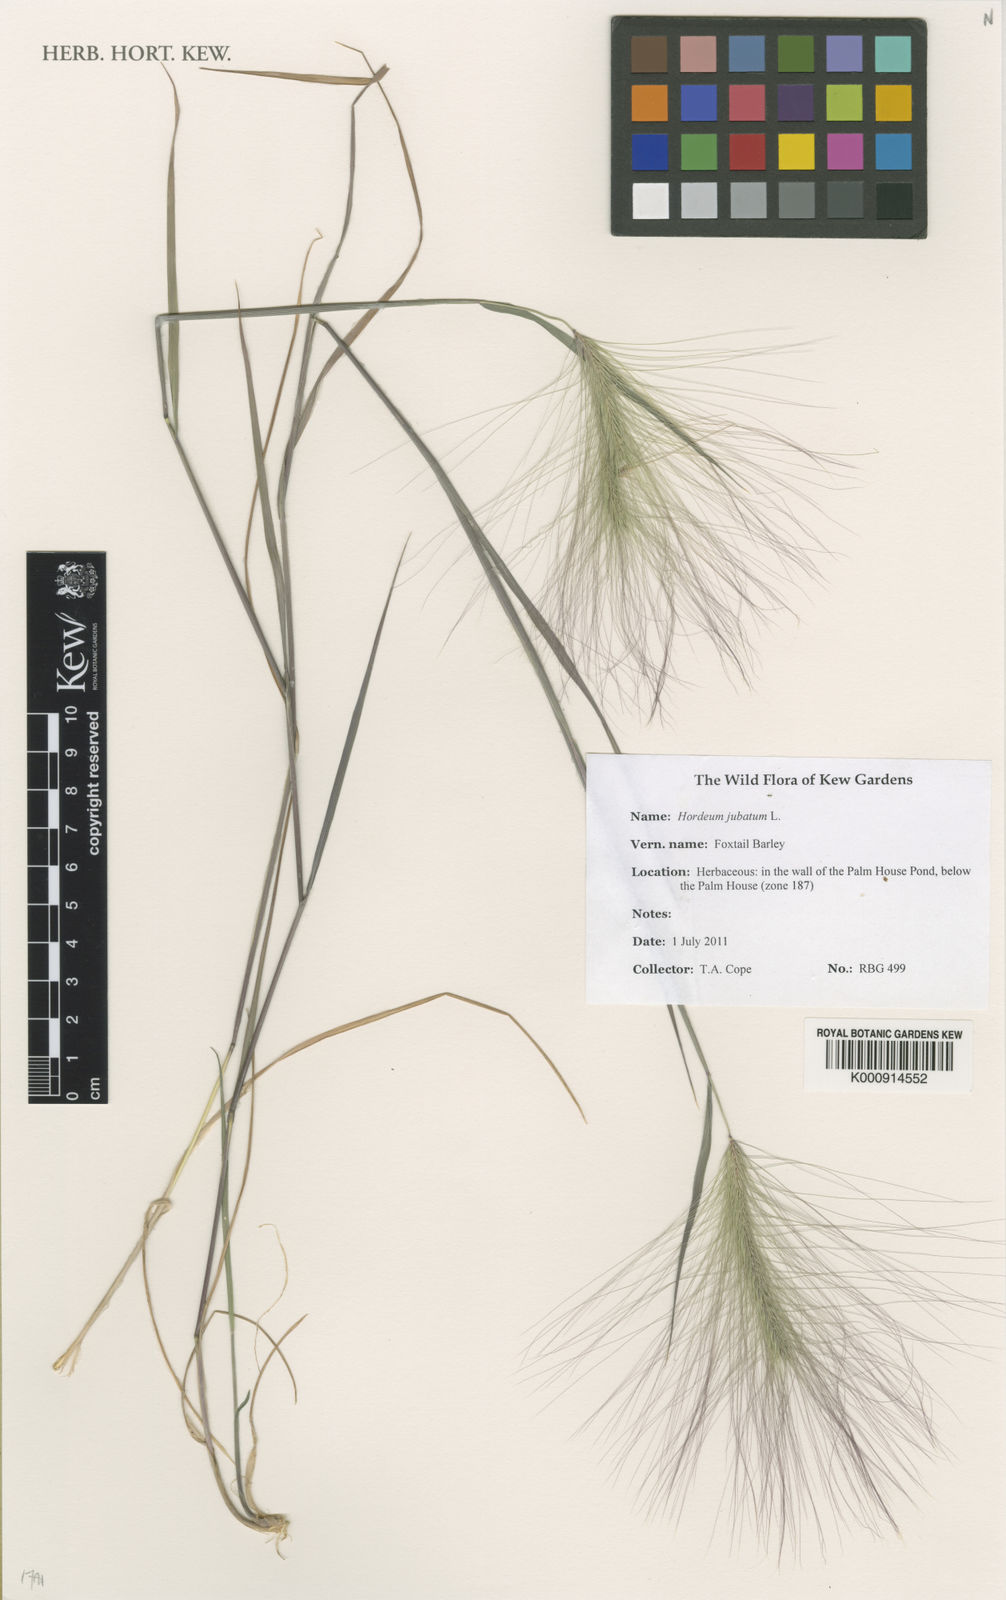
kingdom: Plantae
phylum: Tracheophyta
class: Liliopsida
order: Poales
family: Poaceae
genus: Hordeum
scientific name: Hordeum jubatum
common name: Foxtail barley
